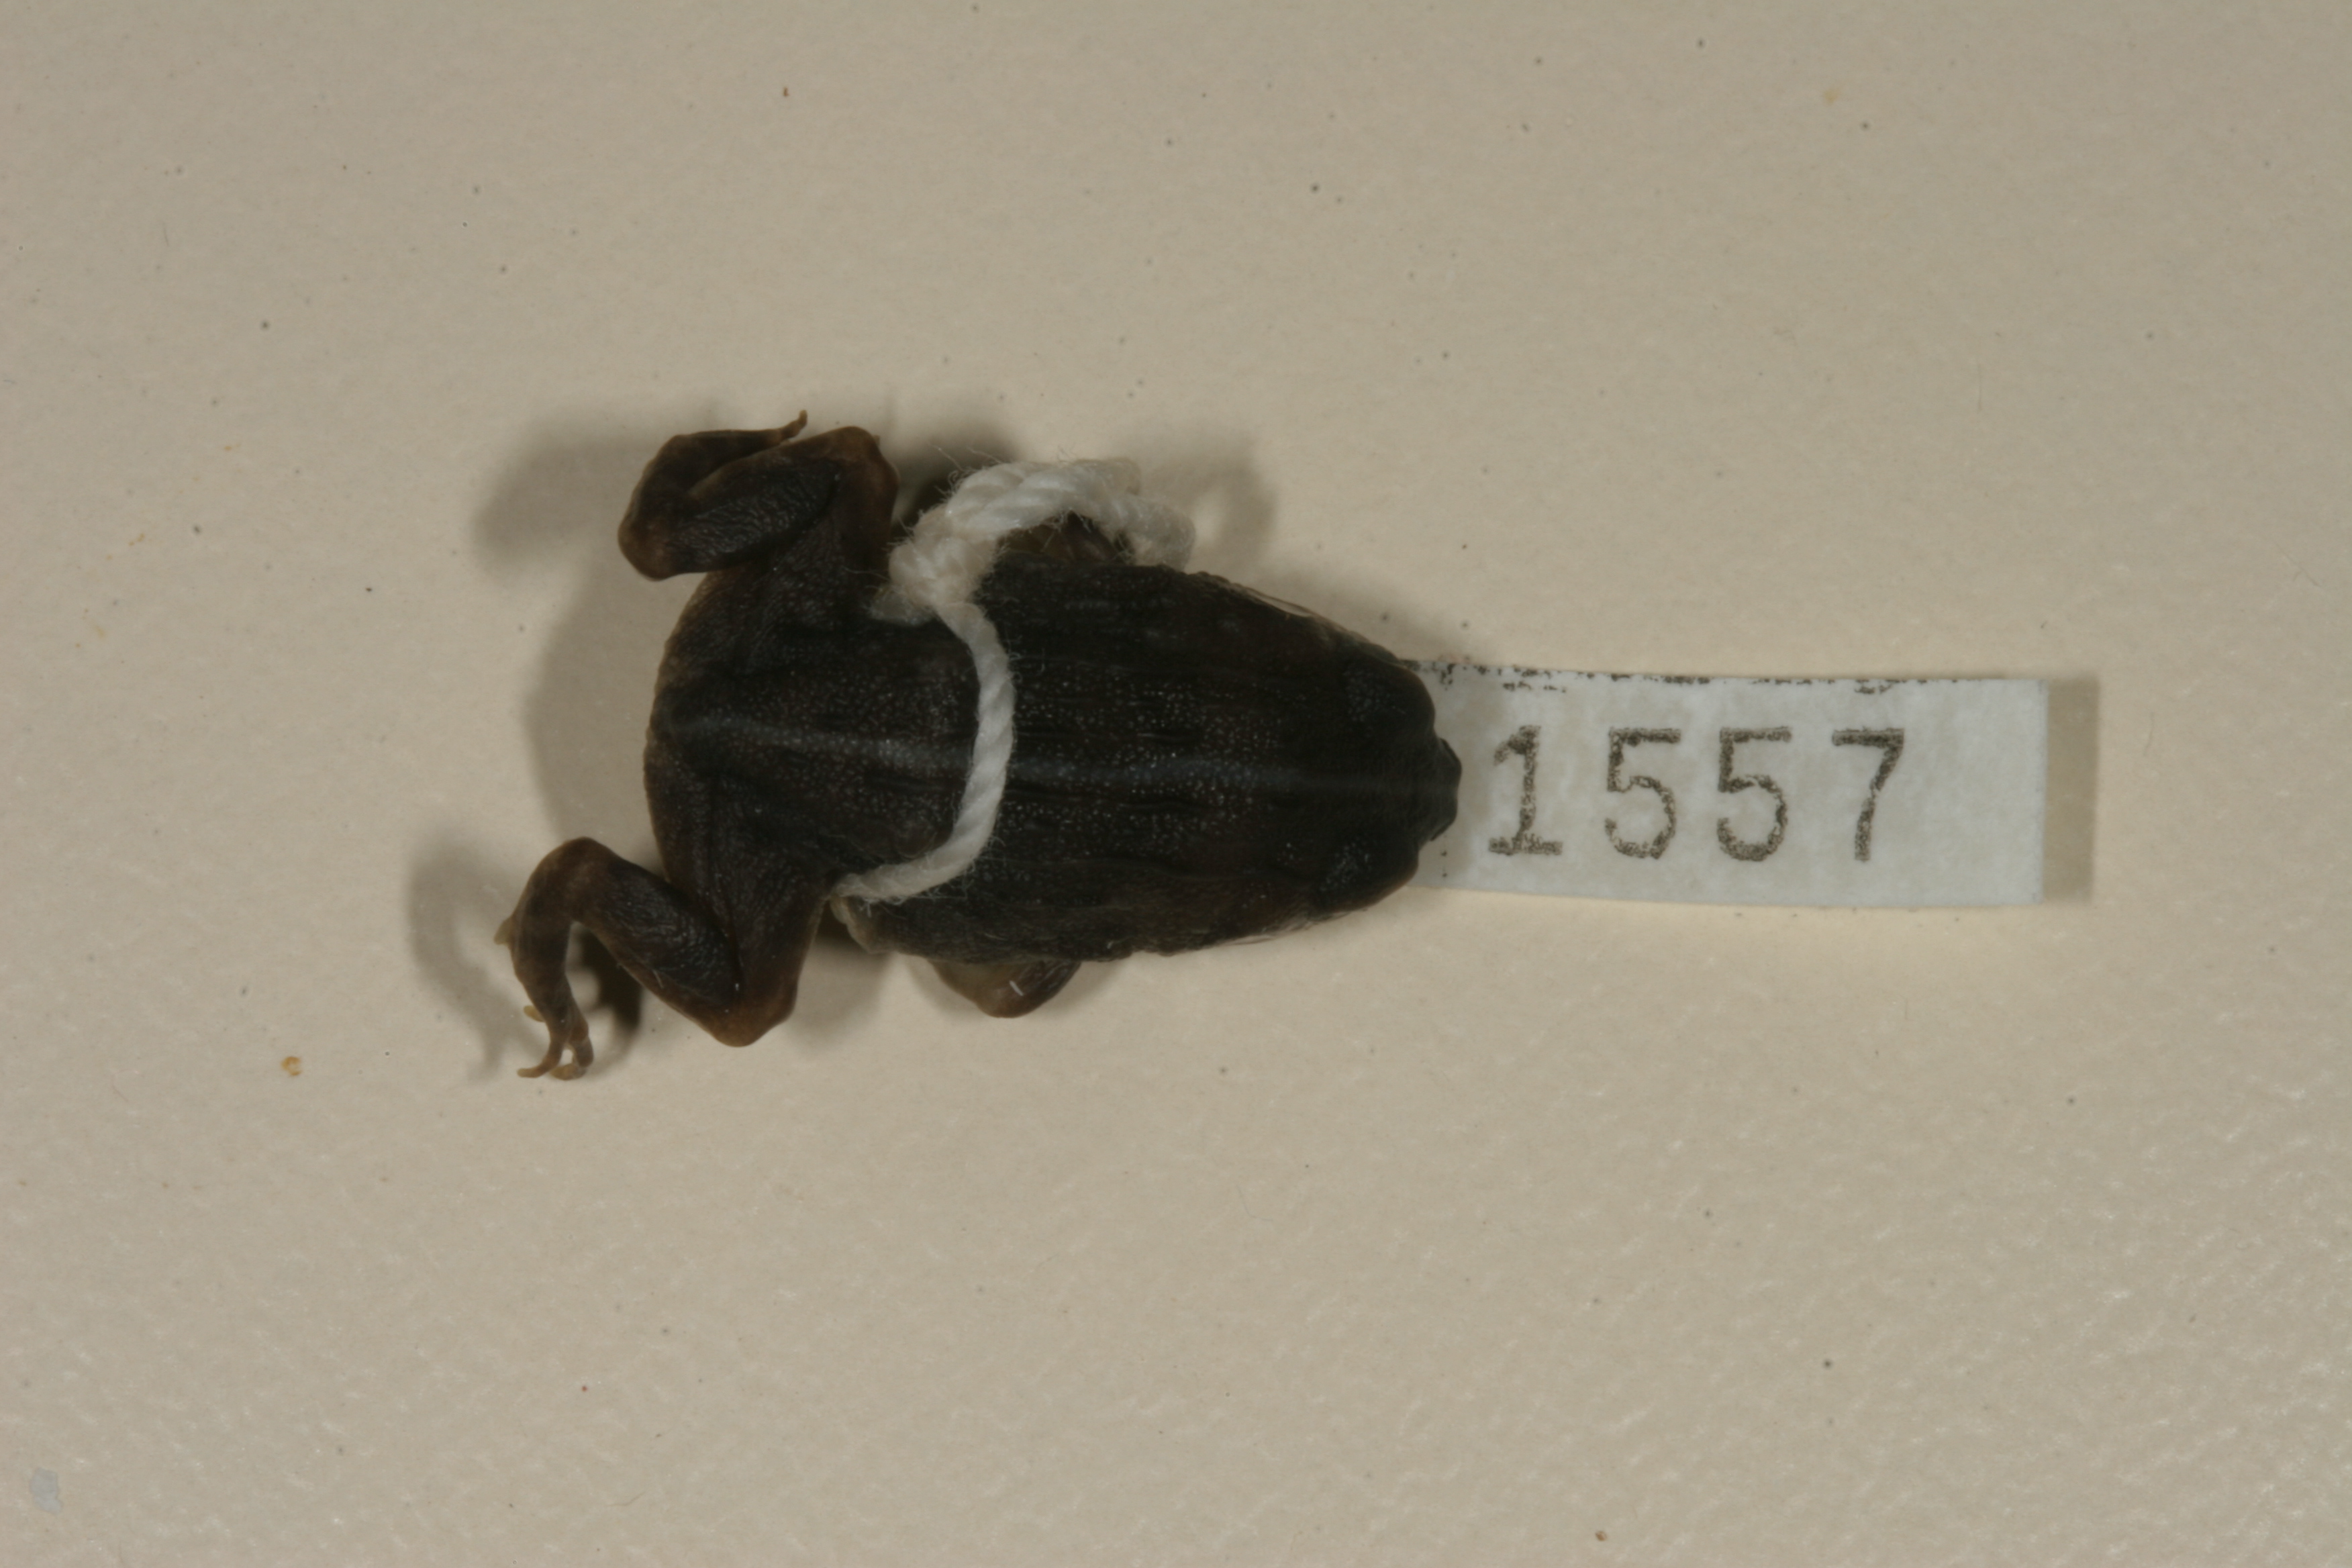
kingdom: Animalia
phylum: Chordata
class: Amphibia
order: Anura
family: Pyxicephalidae
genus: Pyxicephalus
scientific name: Pyxicephalus edulis
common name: Peter's bullfrog
